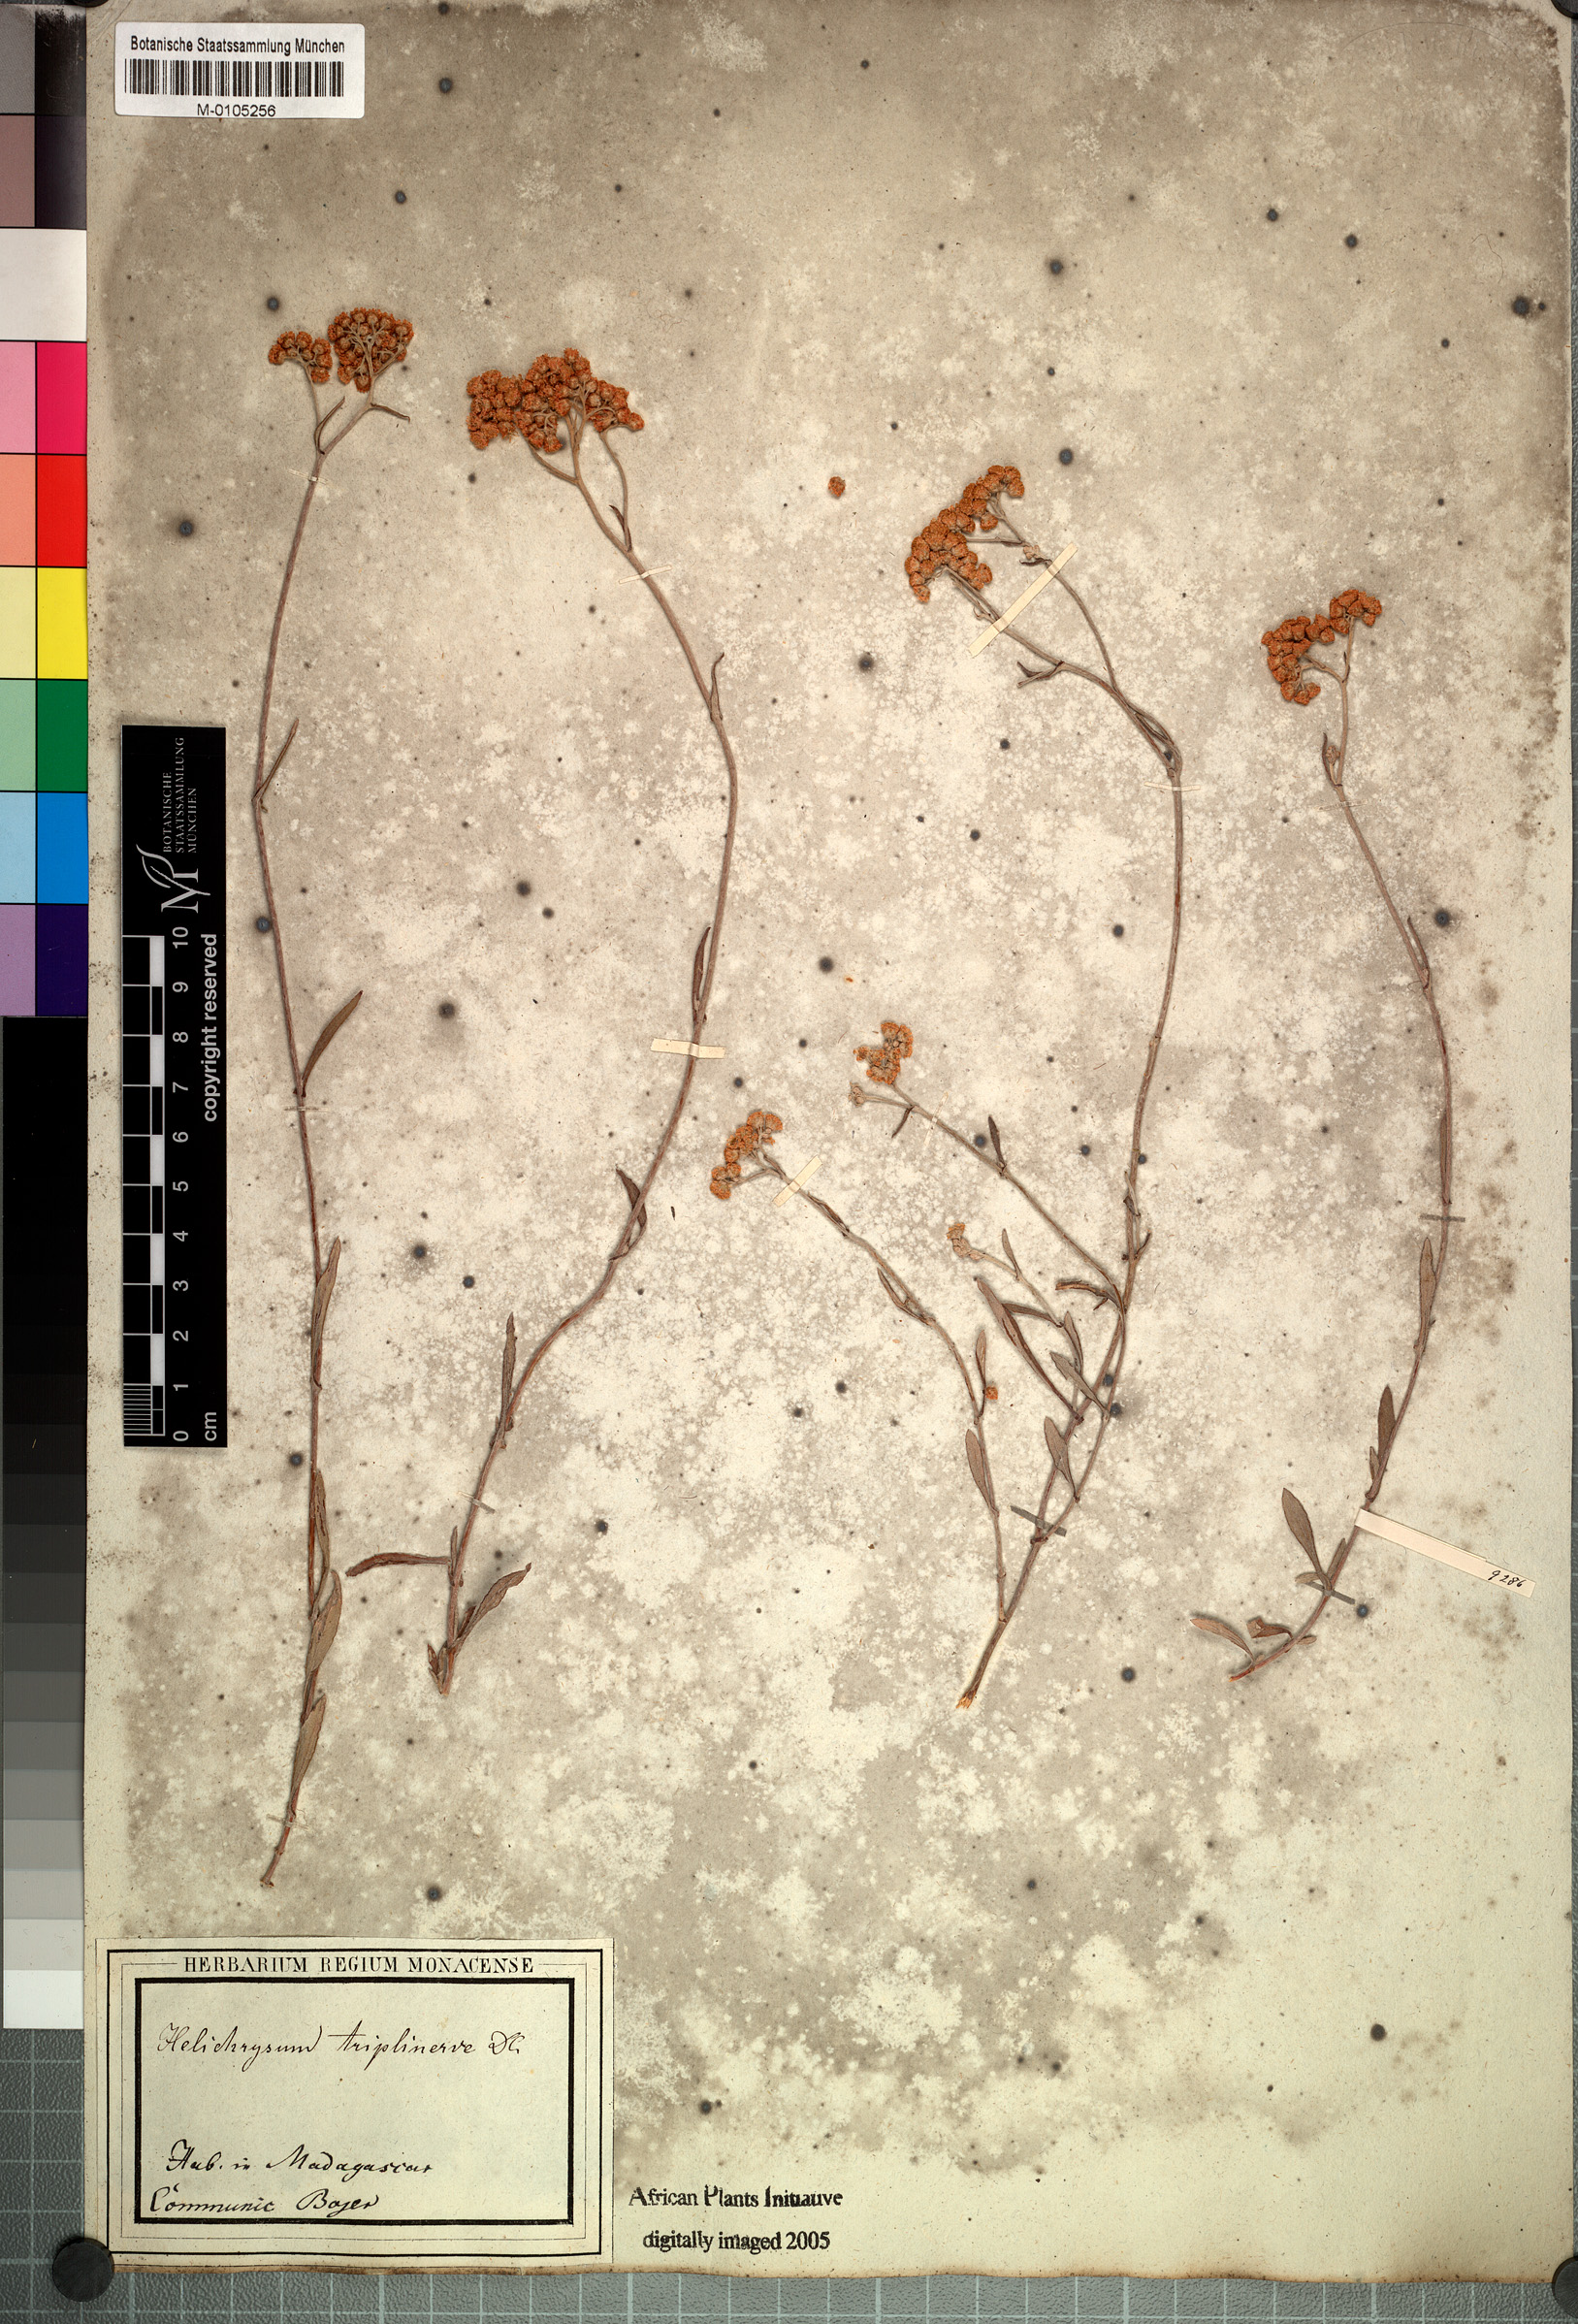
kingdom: Plantae
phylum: Tracheophyta
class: Magnoliopsida
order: Asterales
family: Asteraceae
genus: Helichrysum
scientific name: Helichrysum triplinerve
